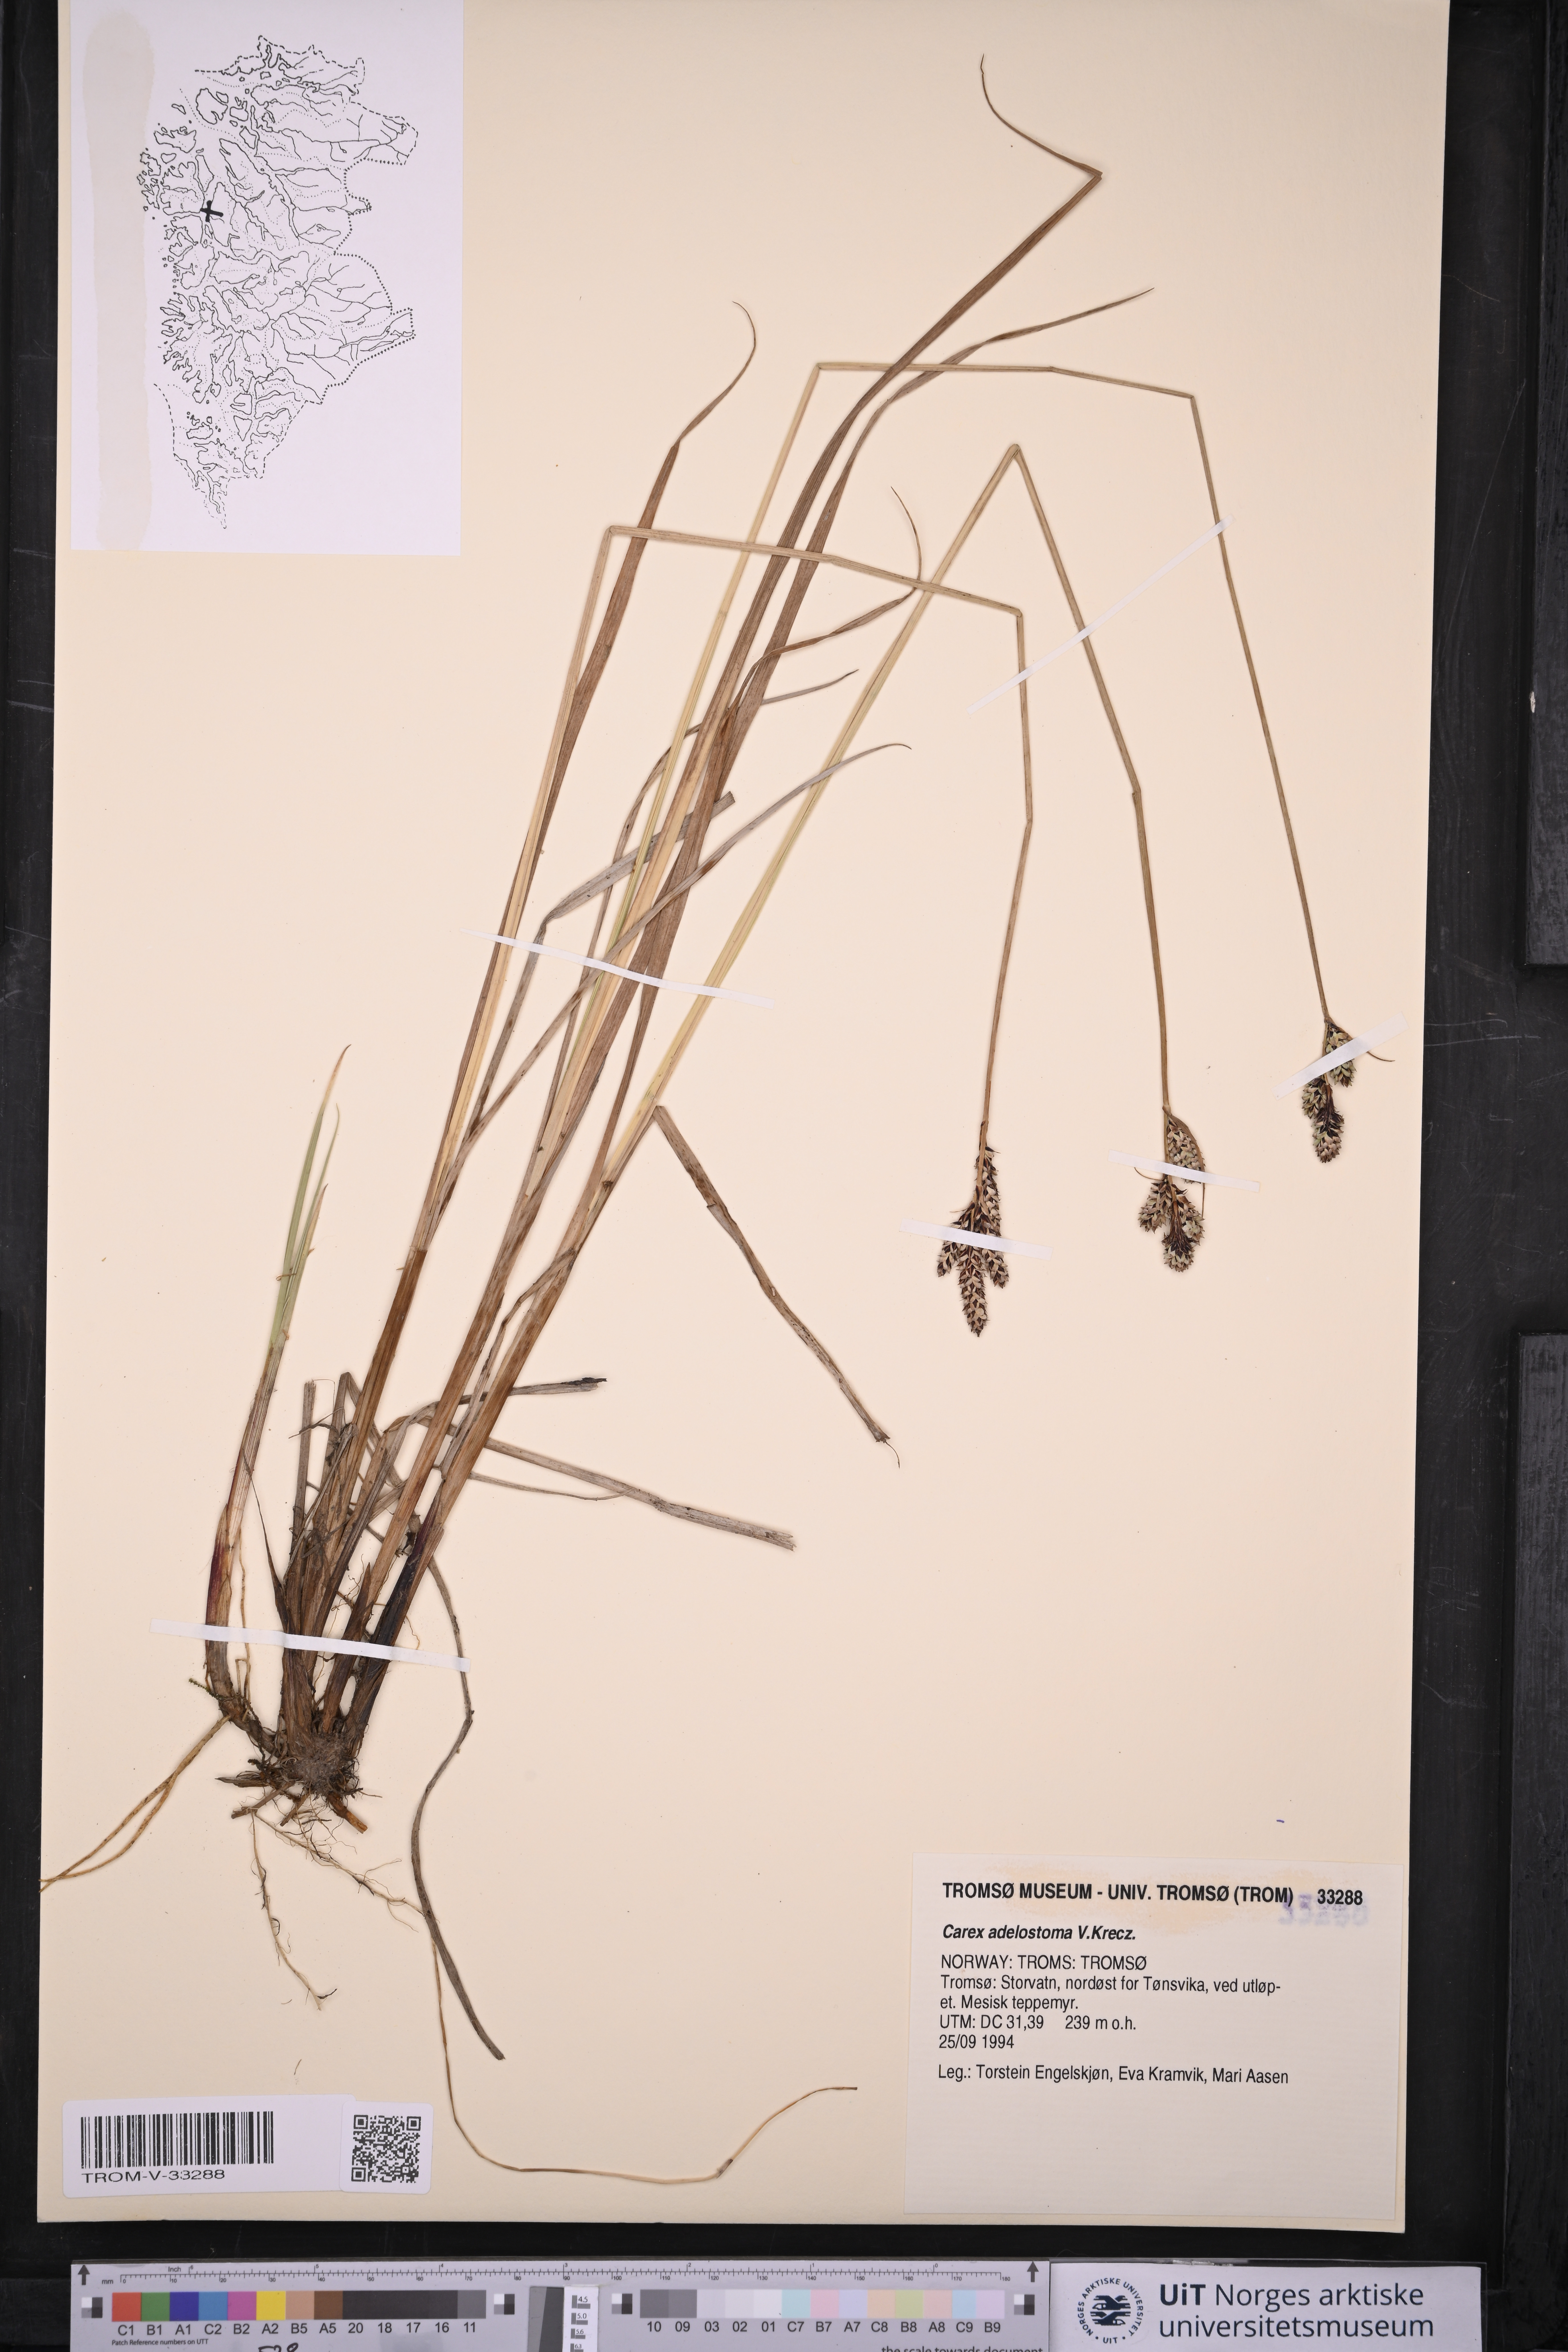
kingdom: Plantae
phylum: Tracheophyta
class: Liliopsida
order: Poales
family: Cyperaceae
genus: Carex
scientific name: Carex adelostoma
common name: Circumpolar sedge
